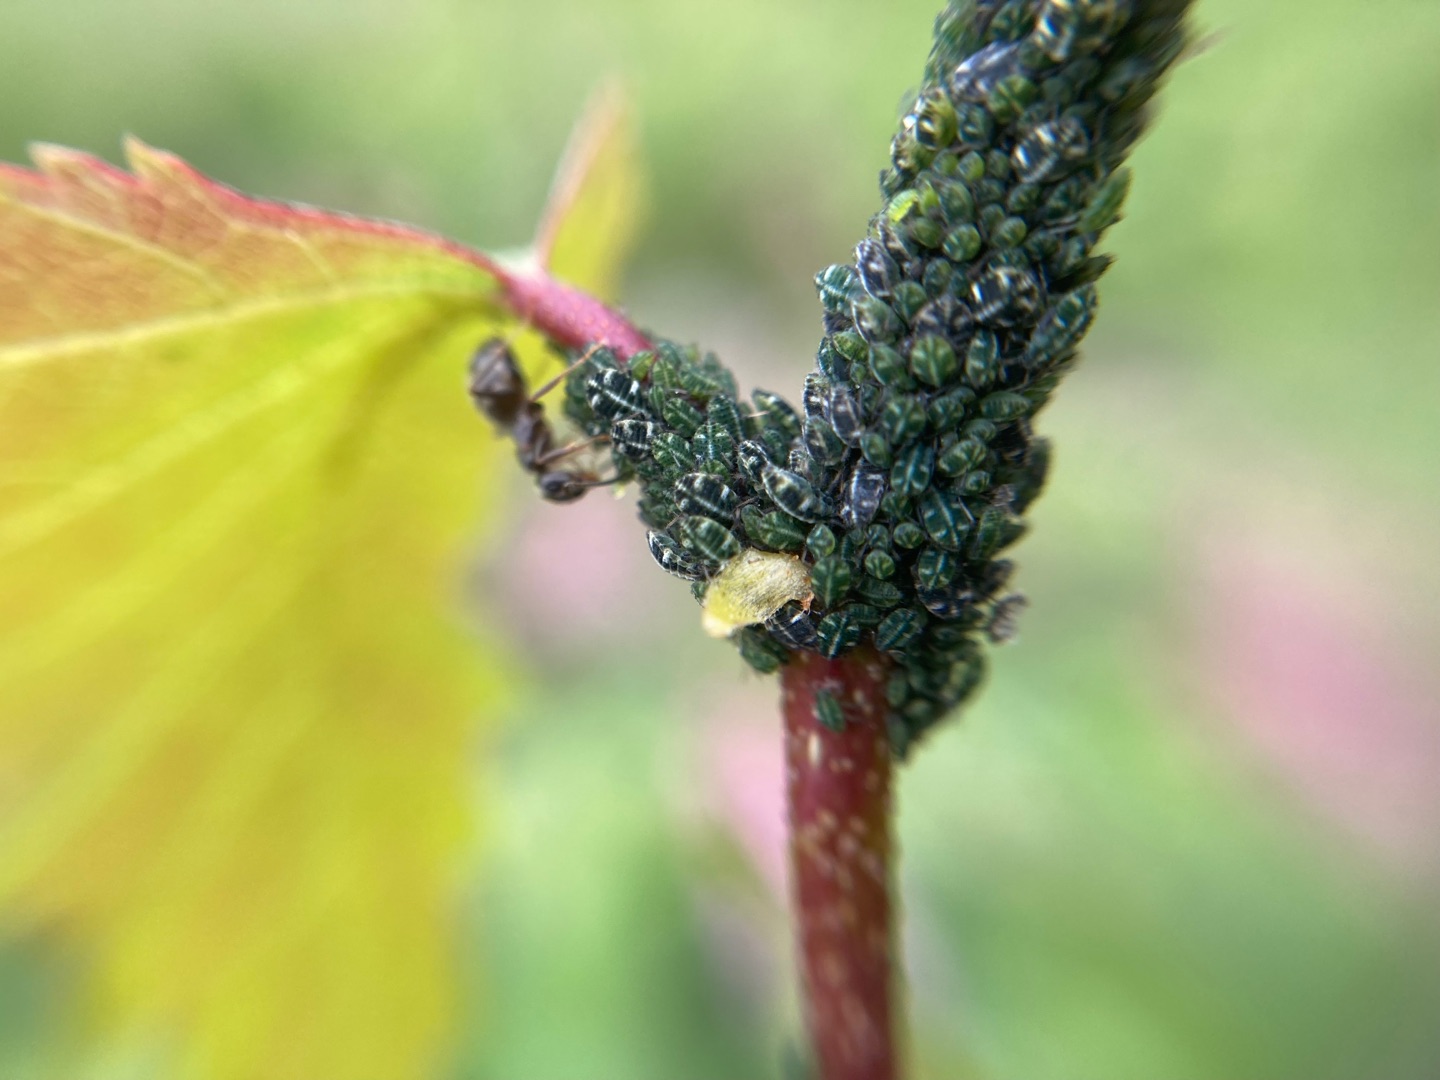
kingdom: Animalia
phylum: Arthropoda
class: Insecta
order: Hemiptera
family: Aphididae
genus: Glyphina
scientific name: Glyphina betulae
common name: Birkemaskebladlus
